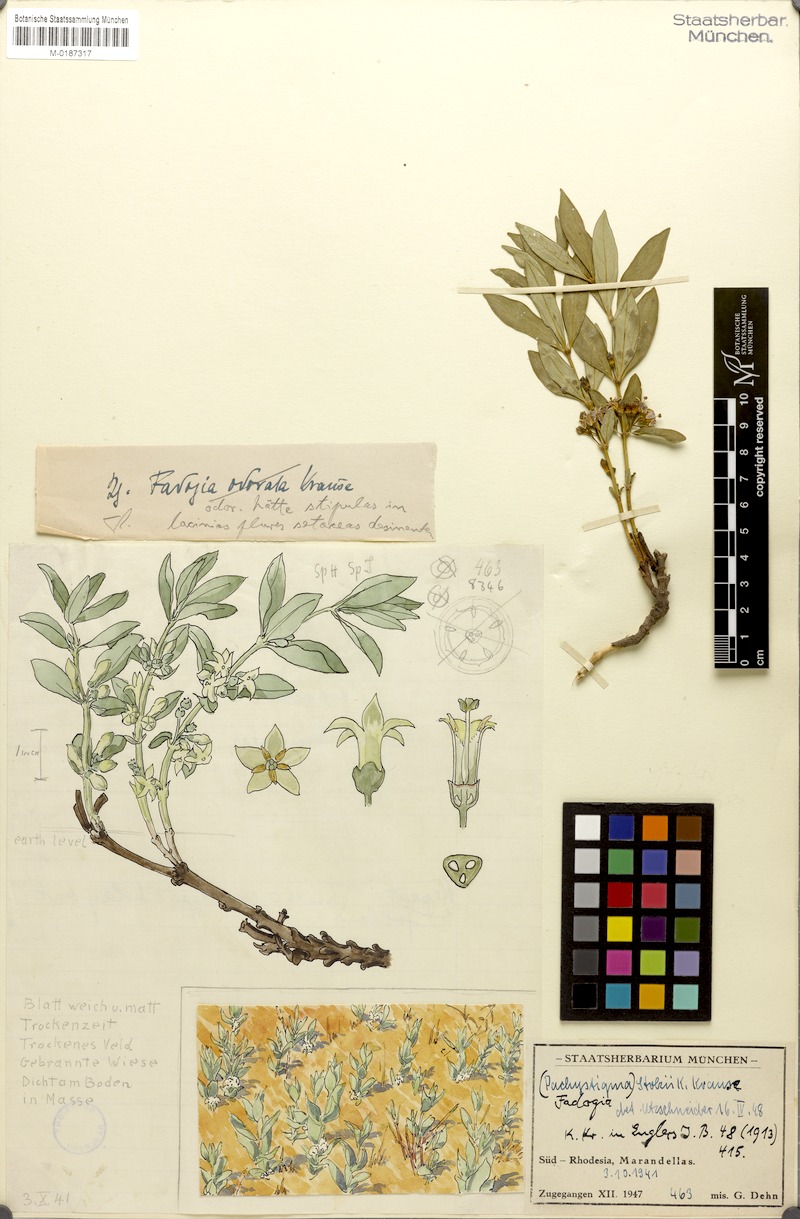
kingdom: Plantae
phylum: Tracheophyta
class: Magnoliopsida
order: Gentianales
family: Rubiaceae
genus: Fadogia
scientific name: Fadogia stenophylla
